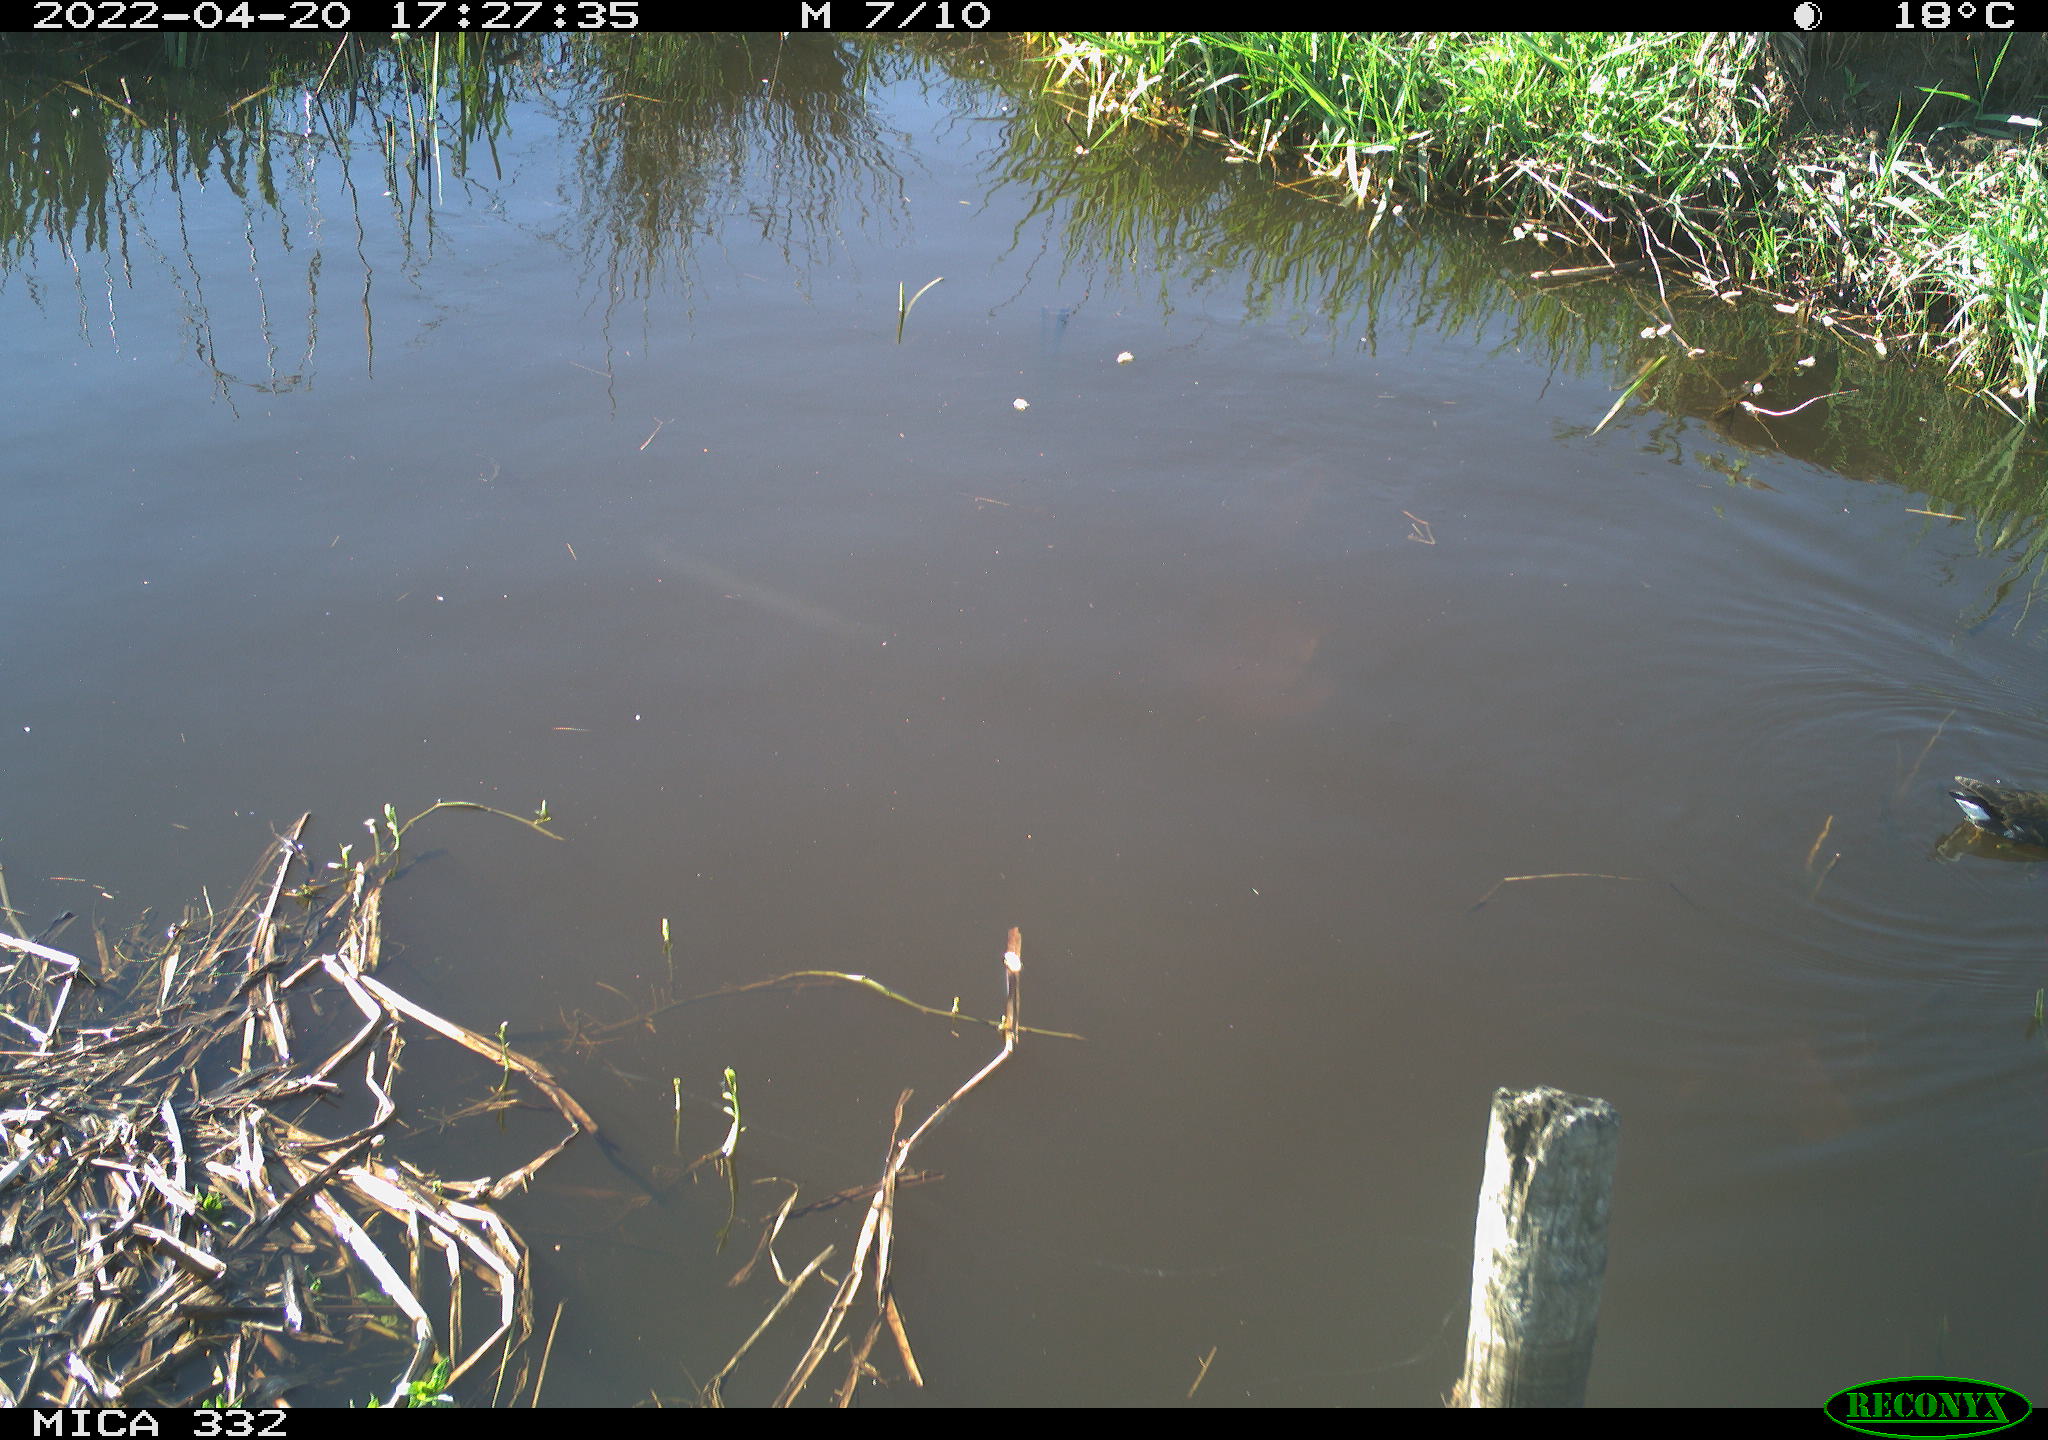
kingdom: Animalia
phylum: Chordata
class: Aves
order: Gruiformes
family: Rallidae
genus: Gallinula
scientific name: Gallinula chloropus
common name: Common moorhen
